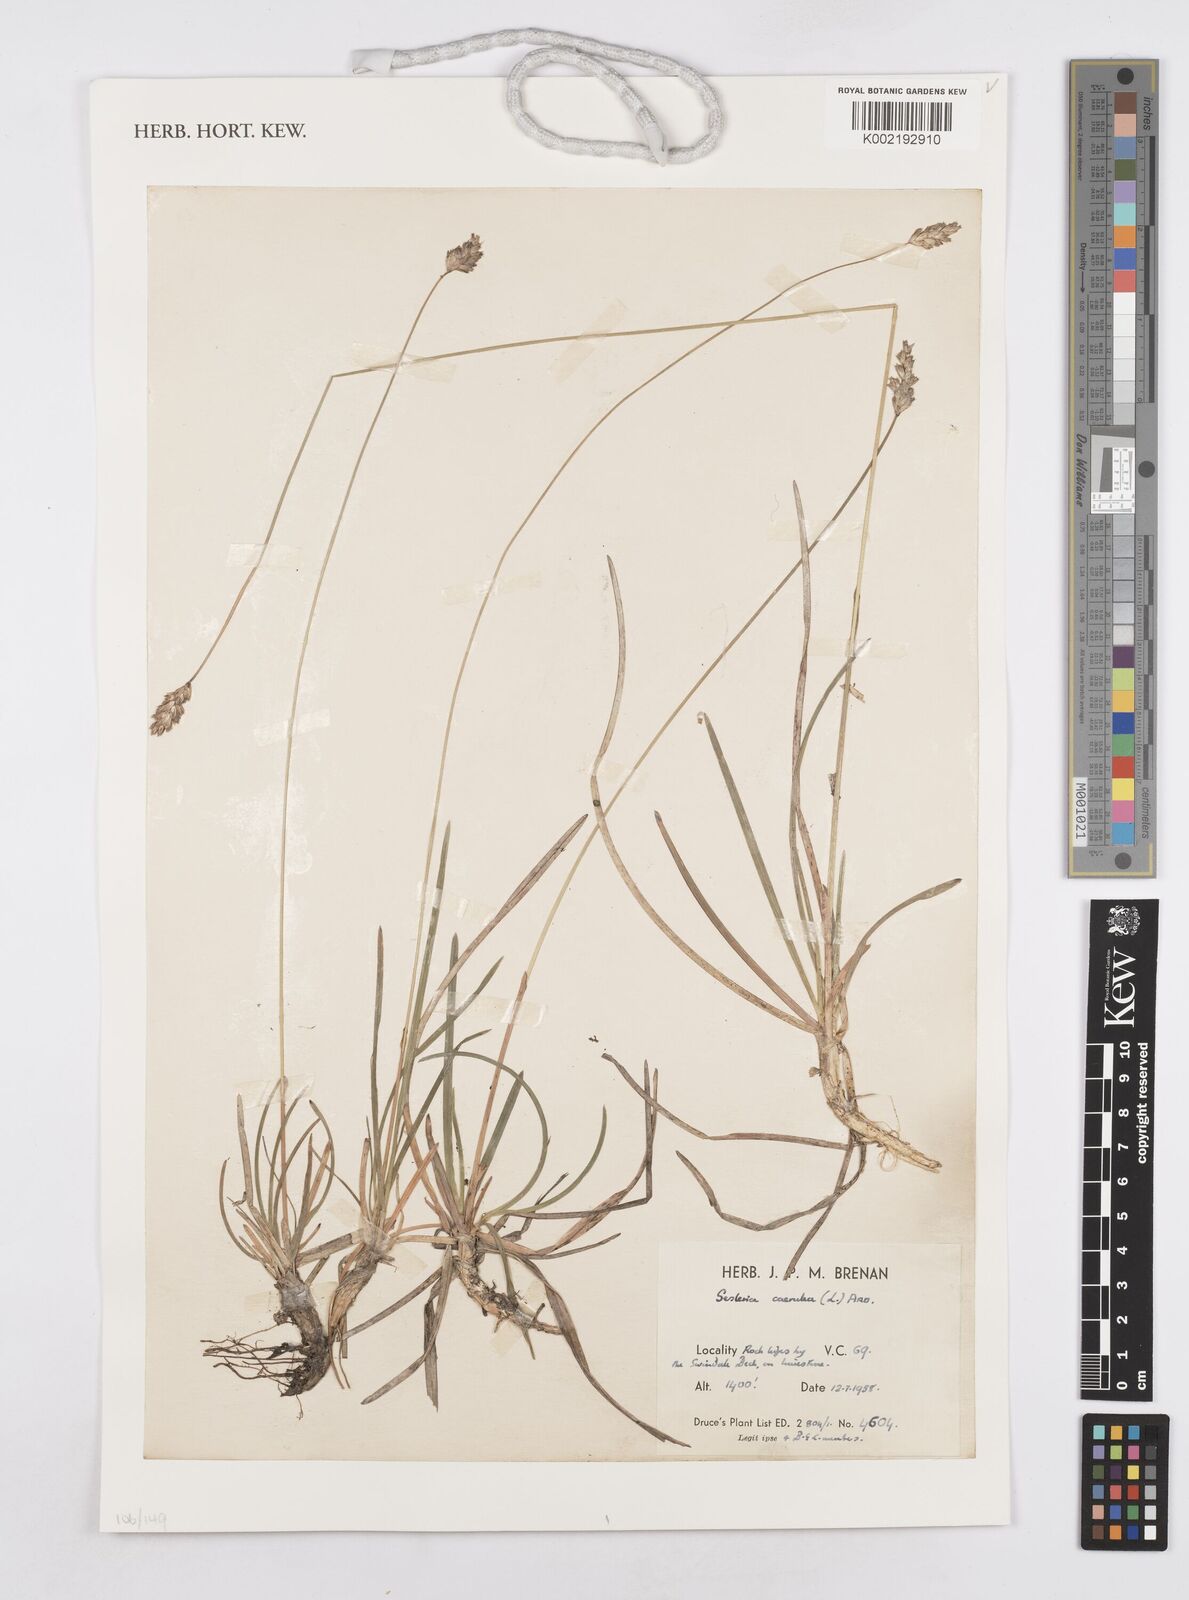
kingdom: Plantae
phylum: Tracheophyta
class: Liliopsida
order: Poales
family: Poaceae
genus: Sesleria
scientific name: Sesleria caerulea
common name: Blue moor-grass
